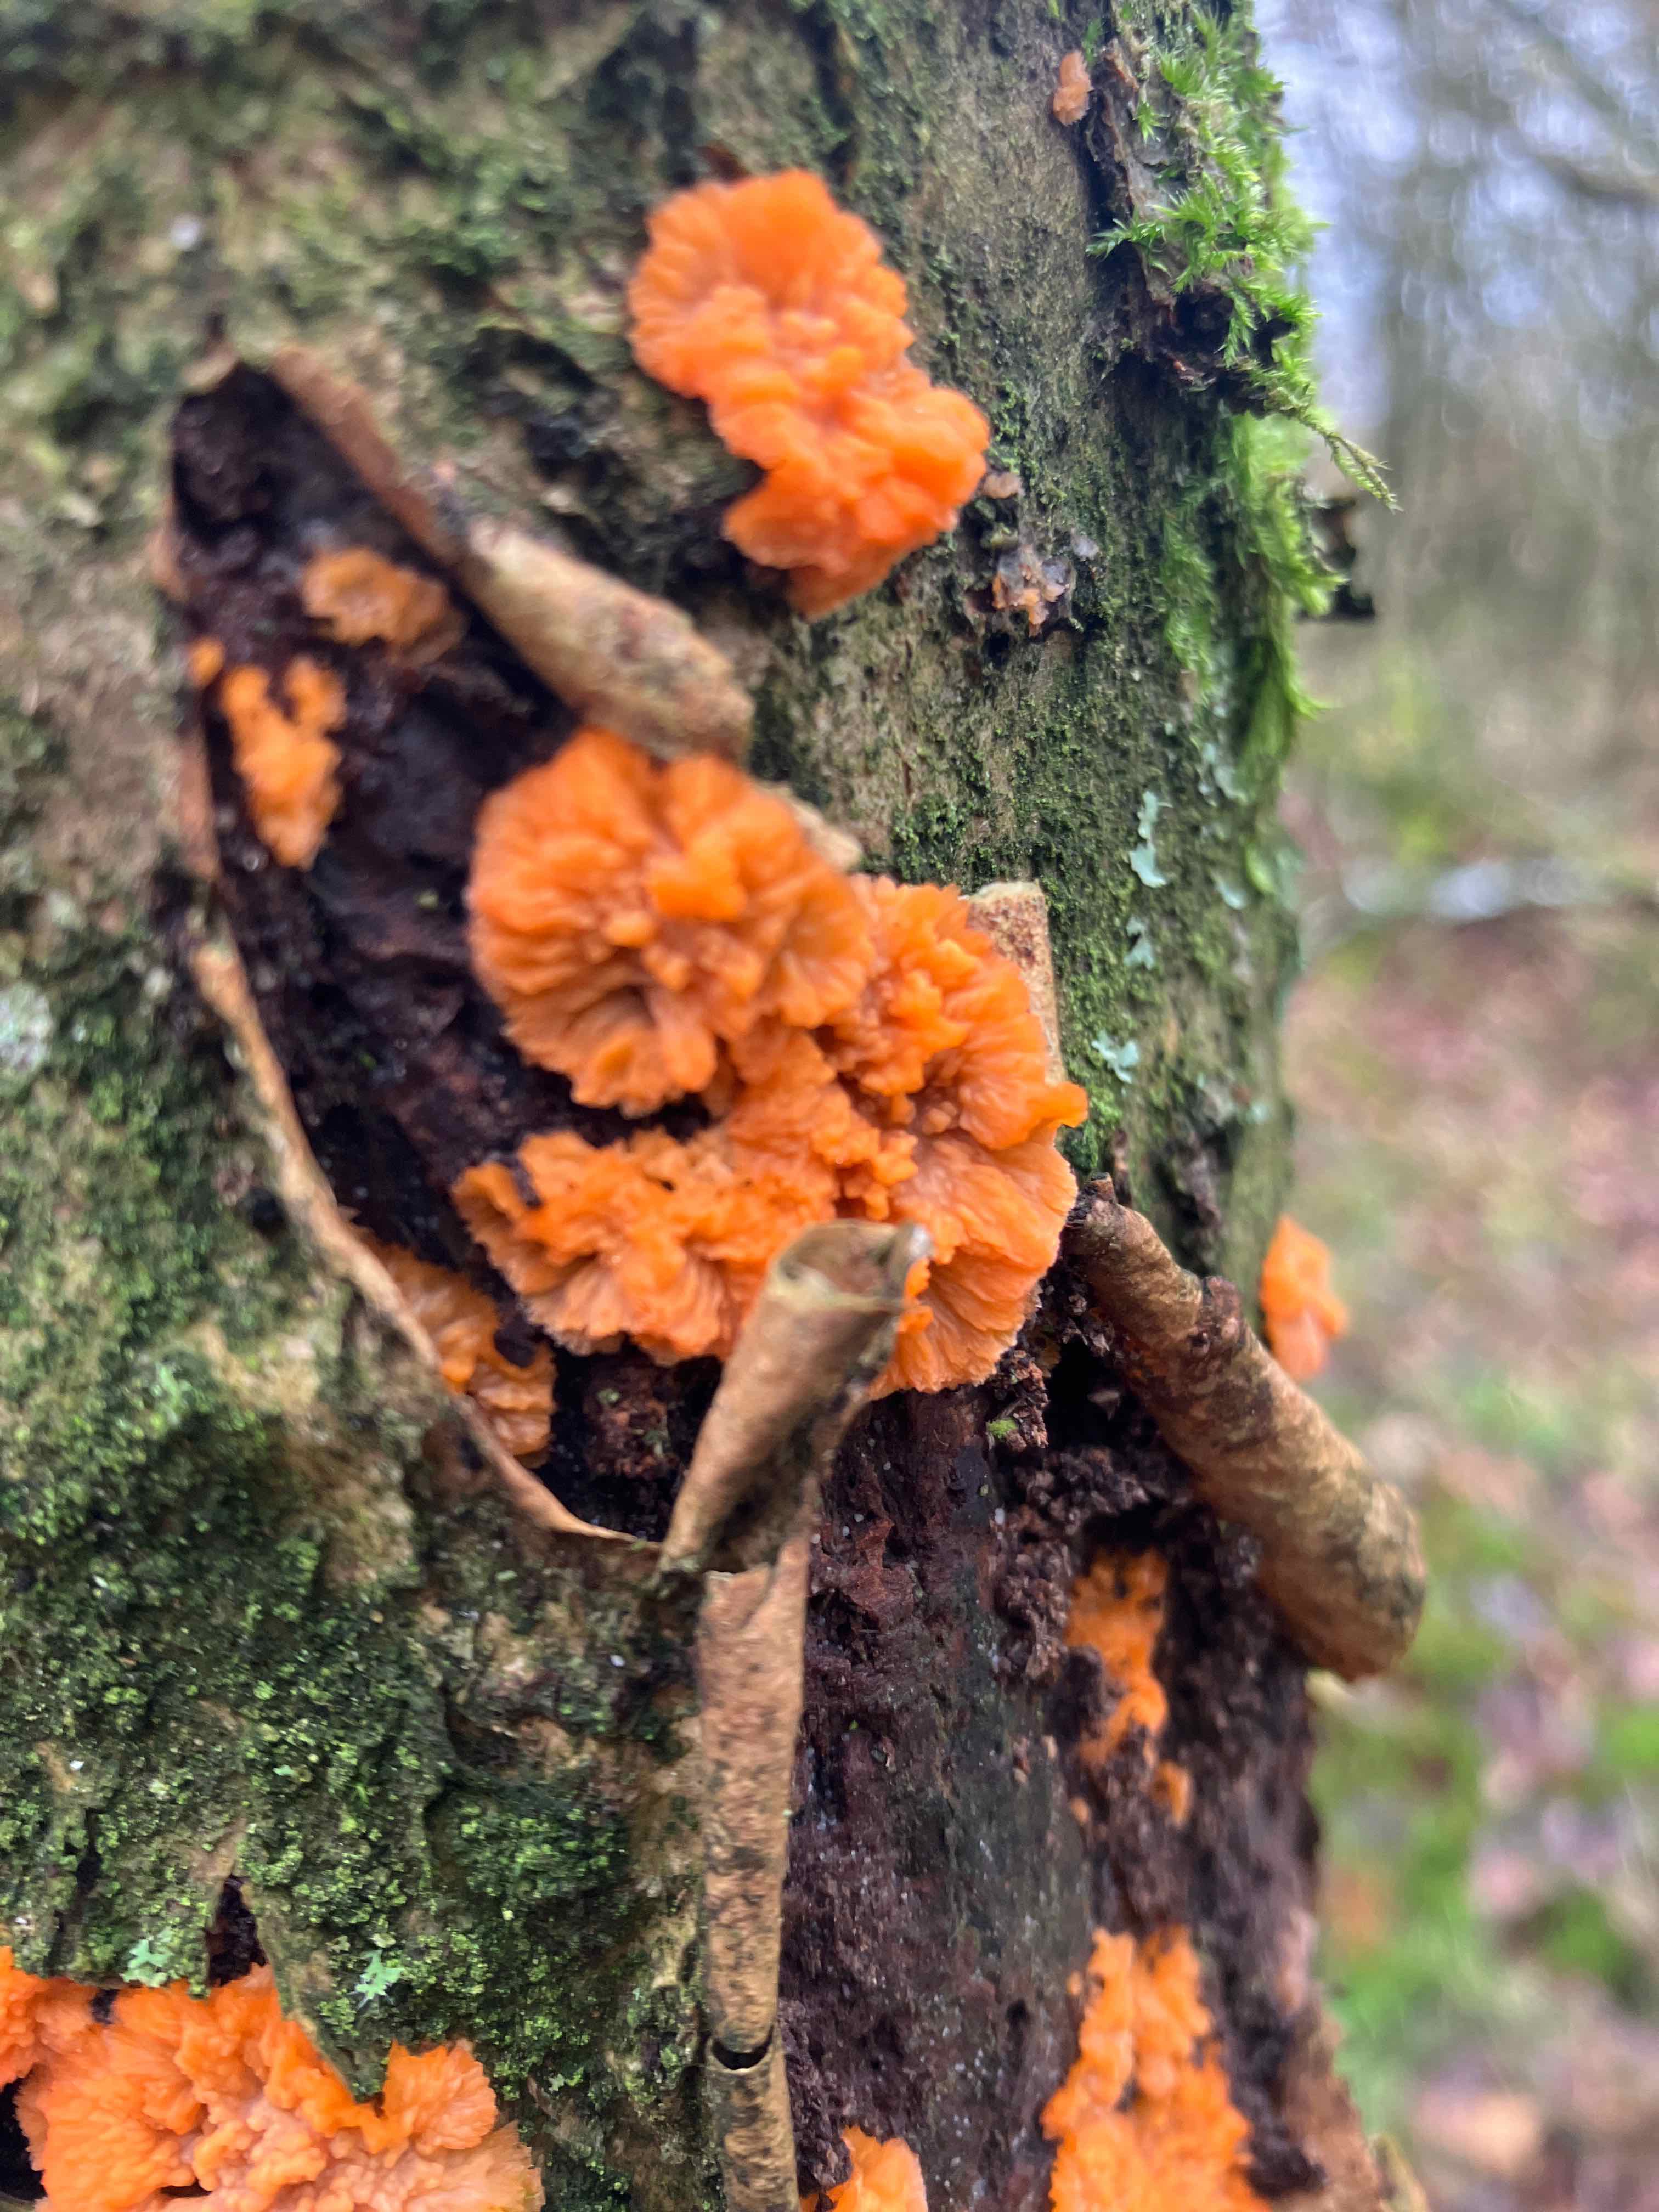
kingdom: Fungi
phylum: Basidiomycota
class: Agaricomycetes
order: Polyporales
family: Meruliaceae
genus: Phlebia
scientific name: Phlebia radiata
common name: stråle-åresvamp
